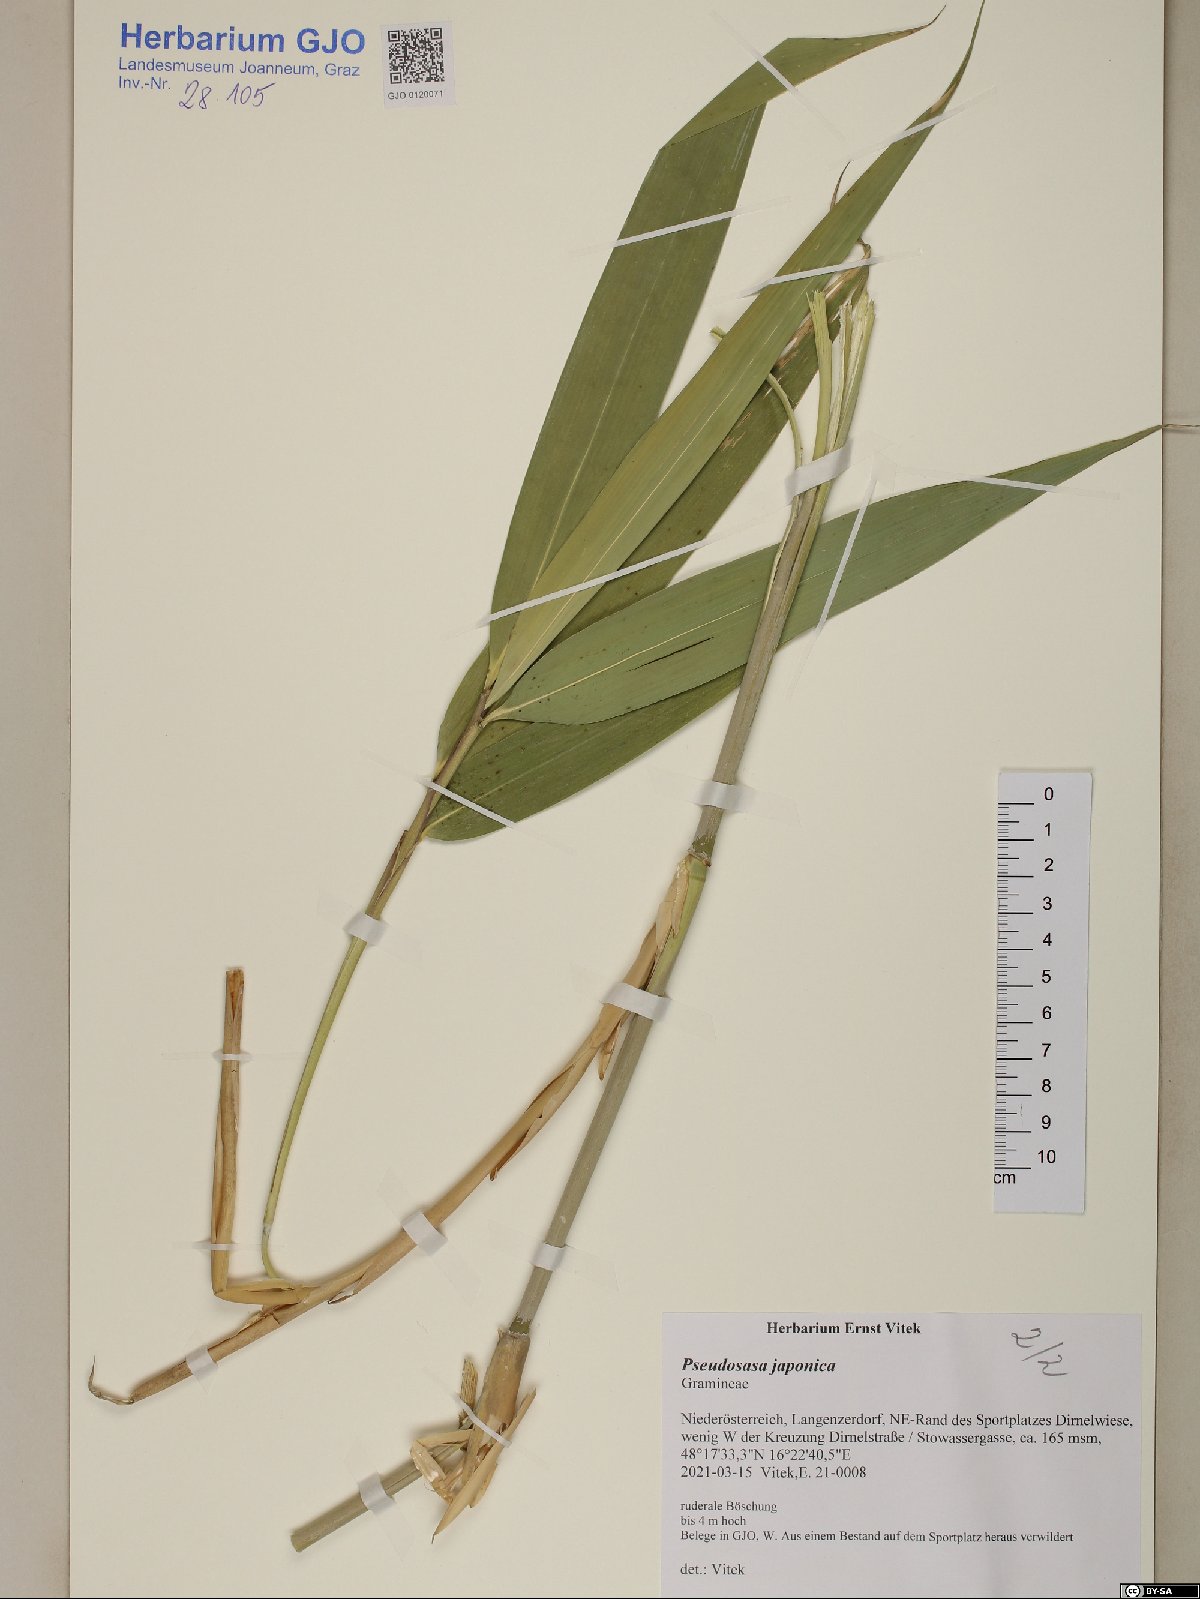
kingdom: Plantae
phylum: Tracheophyta
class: Liliopsida
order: Poales
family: Poaceae
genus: Pseudosasa
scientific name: Pseudosasa japonica
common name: Arrow bamboo
